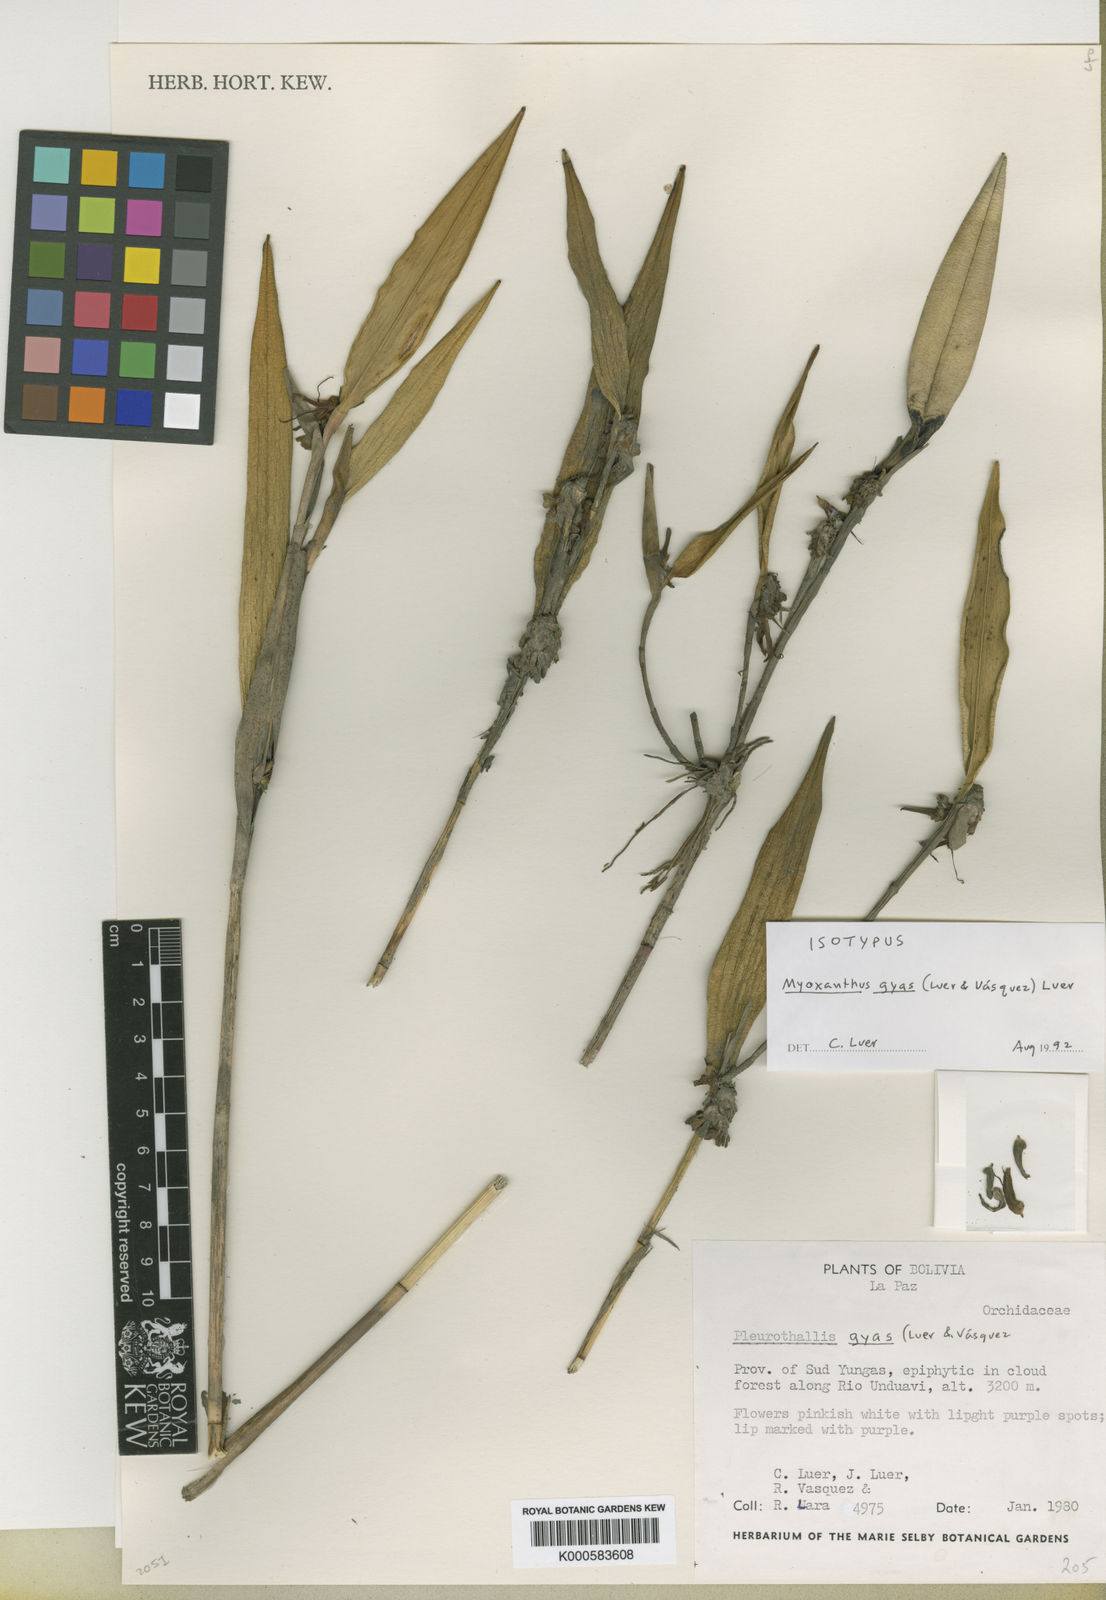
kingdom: Plantae
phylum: Tracheophyta
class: Liliopsida
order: Asparagales
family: Orchidaceae
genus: Myoxanthus
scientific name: Myoxanthus
